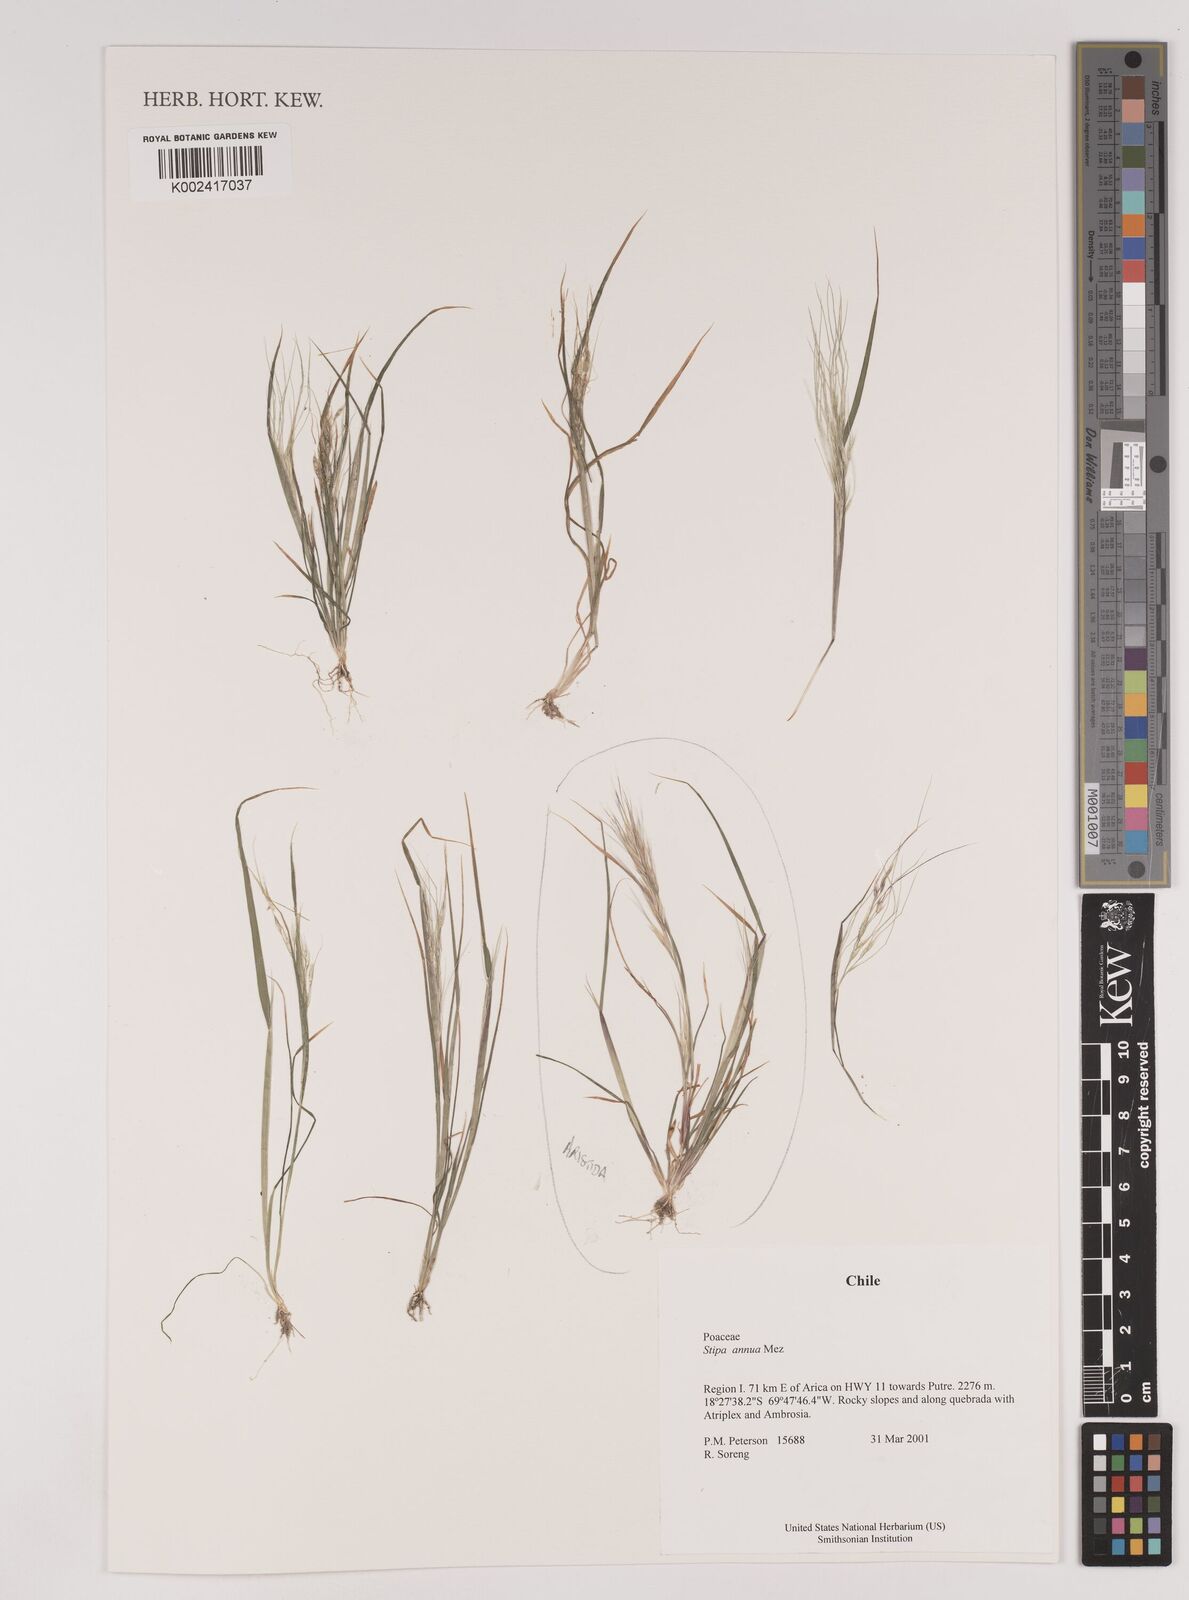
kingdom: Plantae
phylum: Tracheophyta
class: Liliopsida
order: Poales
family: Poaceae
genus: Stipa
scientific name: Stipa annua
